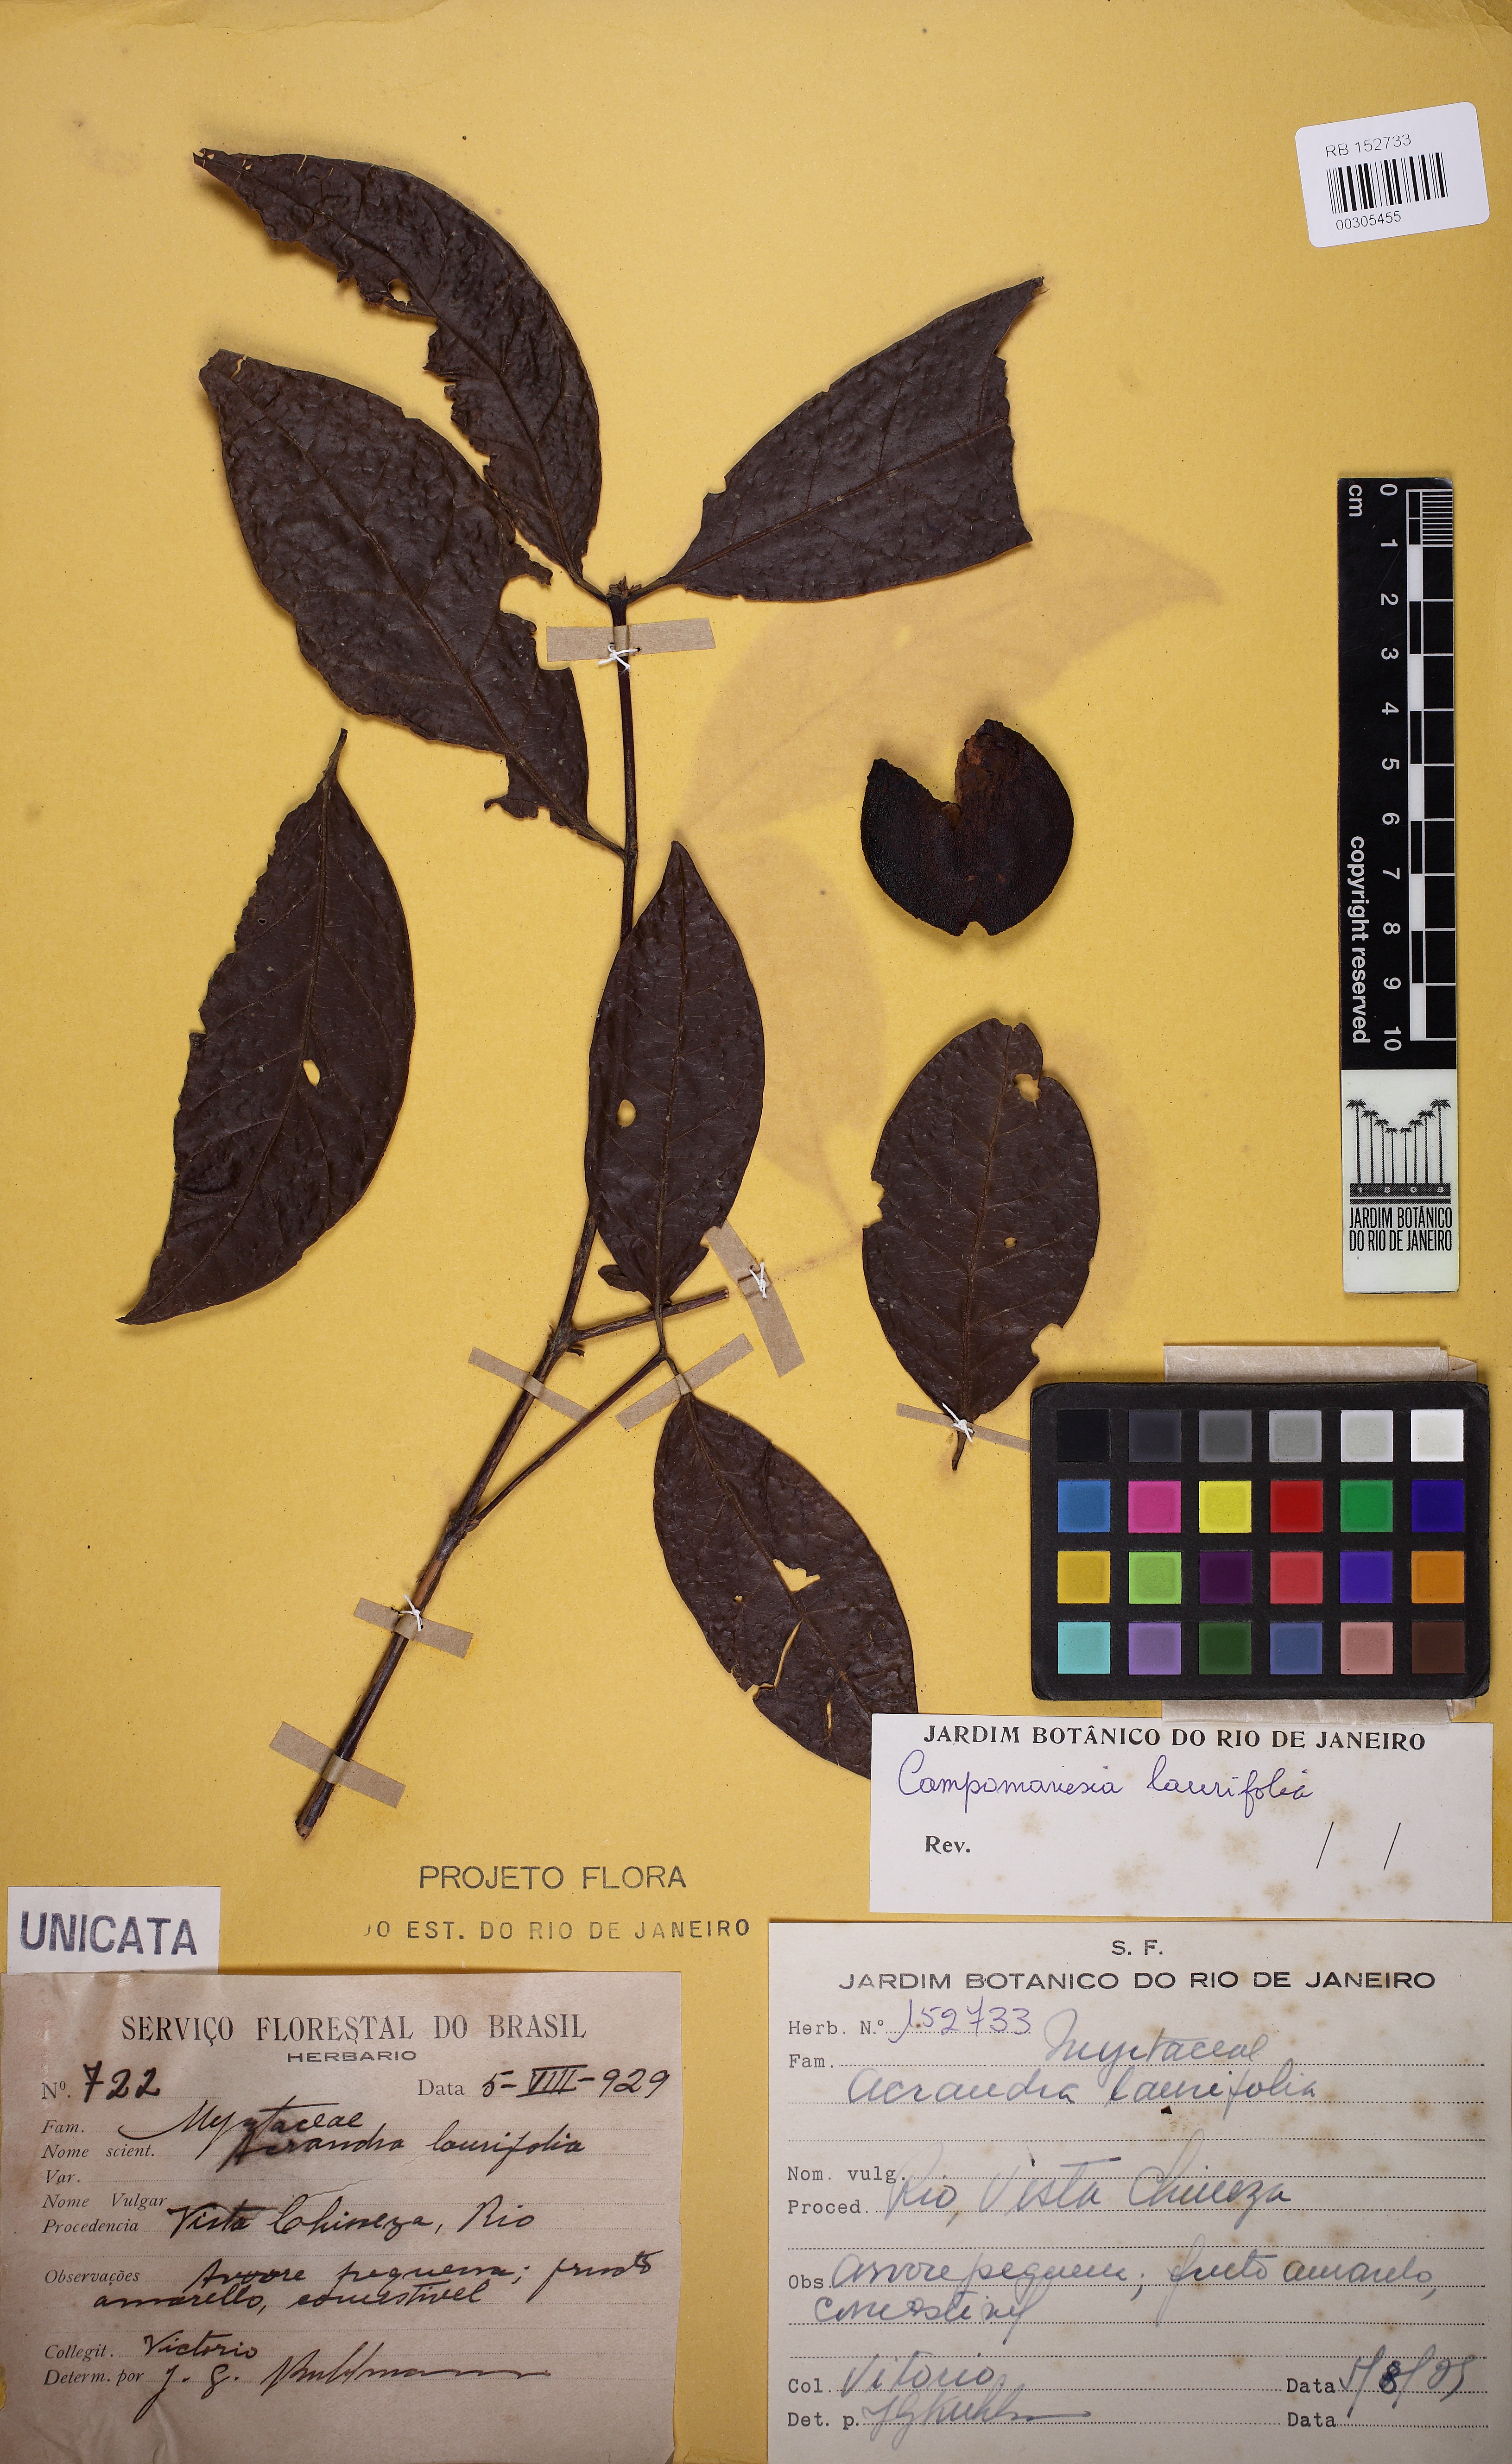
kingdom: Plantae
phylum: Tracheophyta
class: Magnoliopsida
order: Myrtales
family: Myrtaceae
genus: Campomanesia
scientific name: Campomanesia laurifolia
